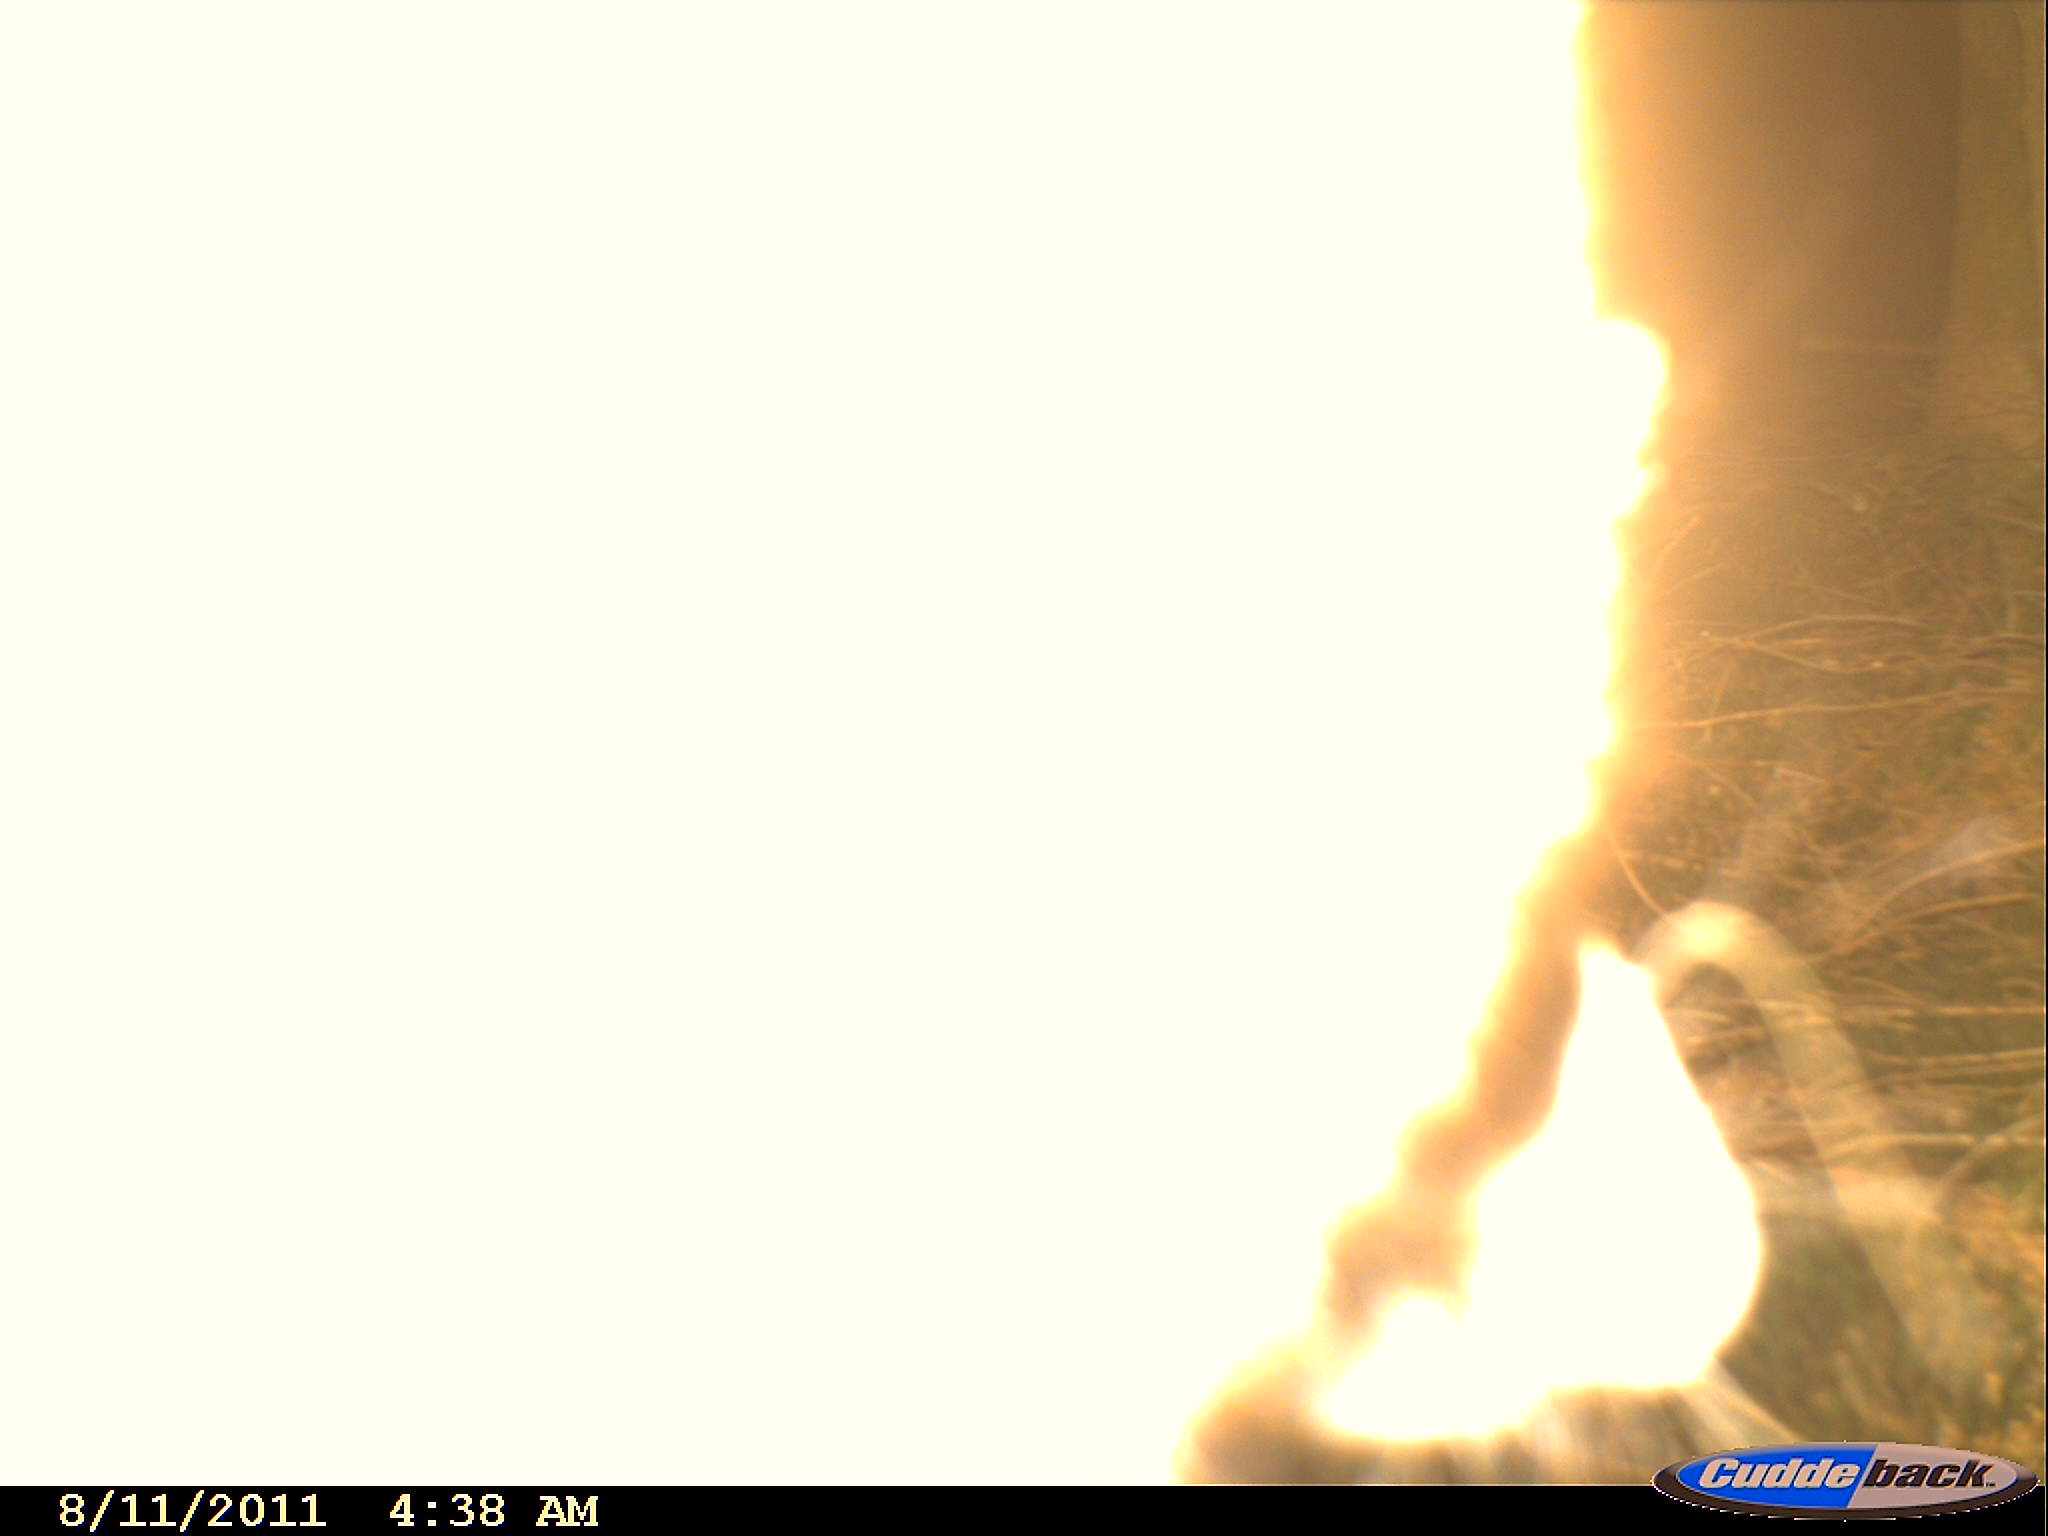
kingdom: Animalia
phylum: Chordata
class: Mammalia
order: Carnivora
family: Procyonidae
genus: Procyon
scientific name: Procyon lotor
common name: Raccoon
